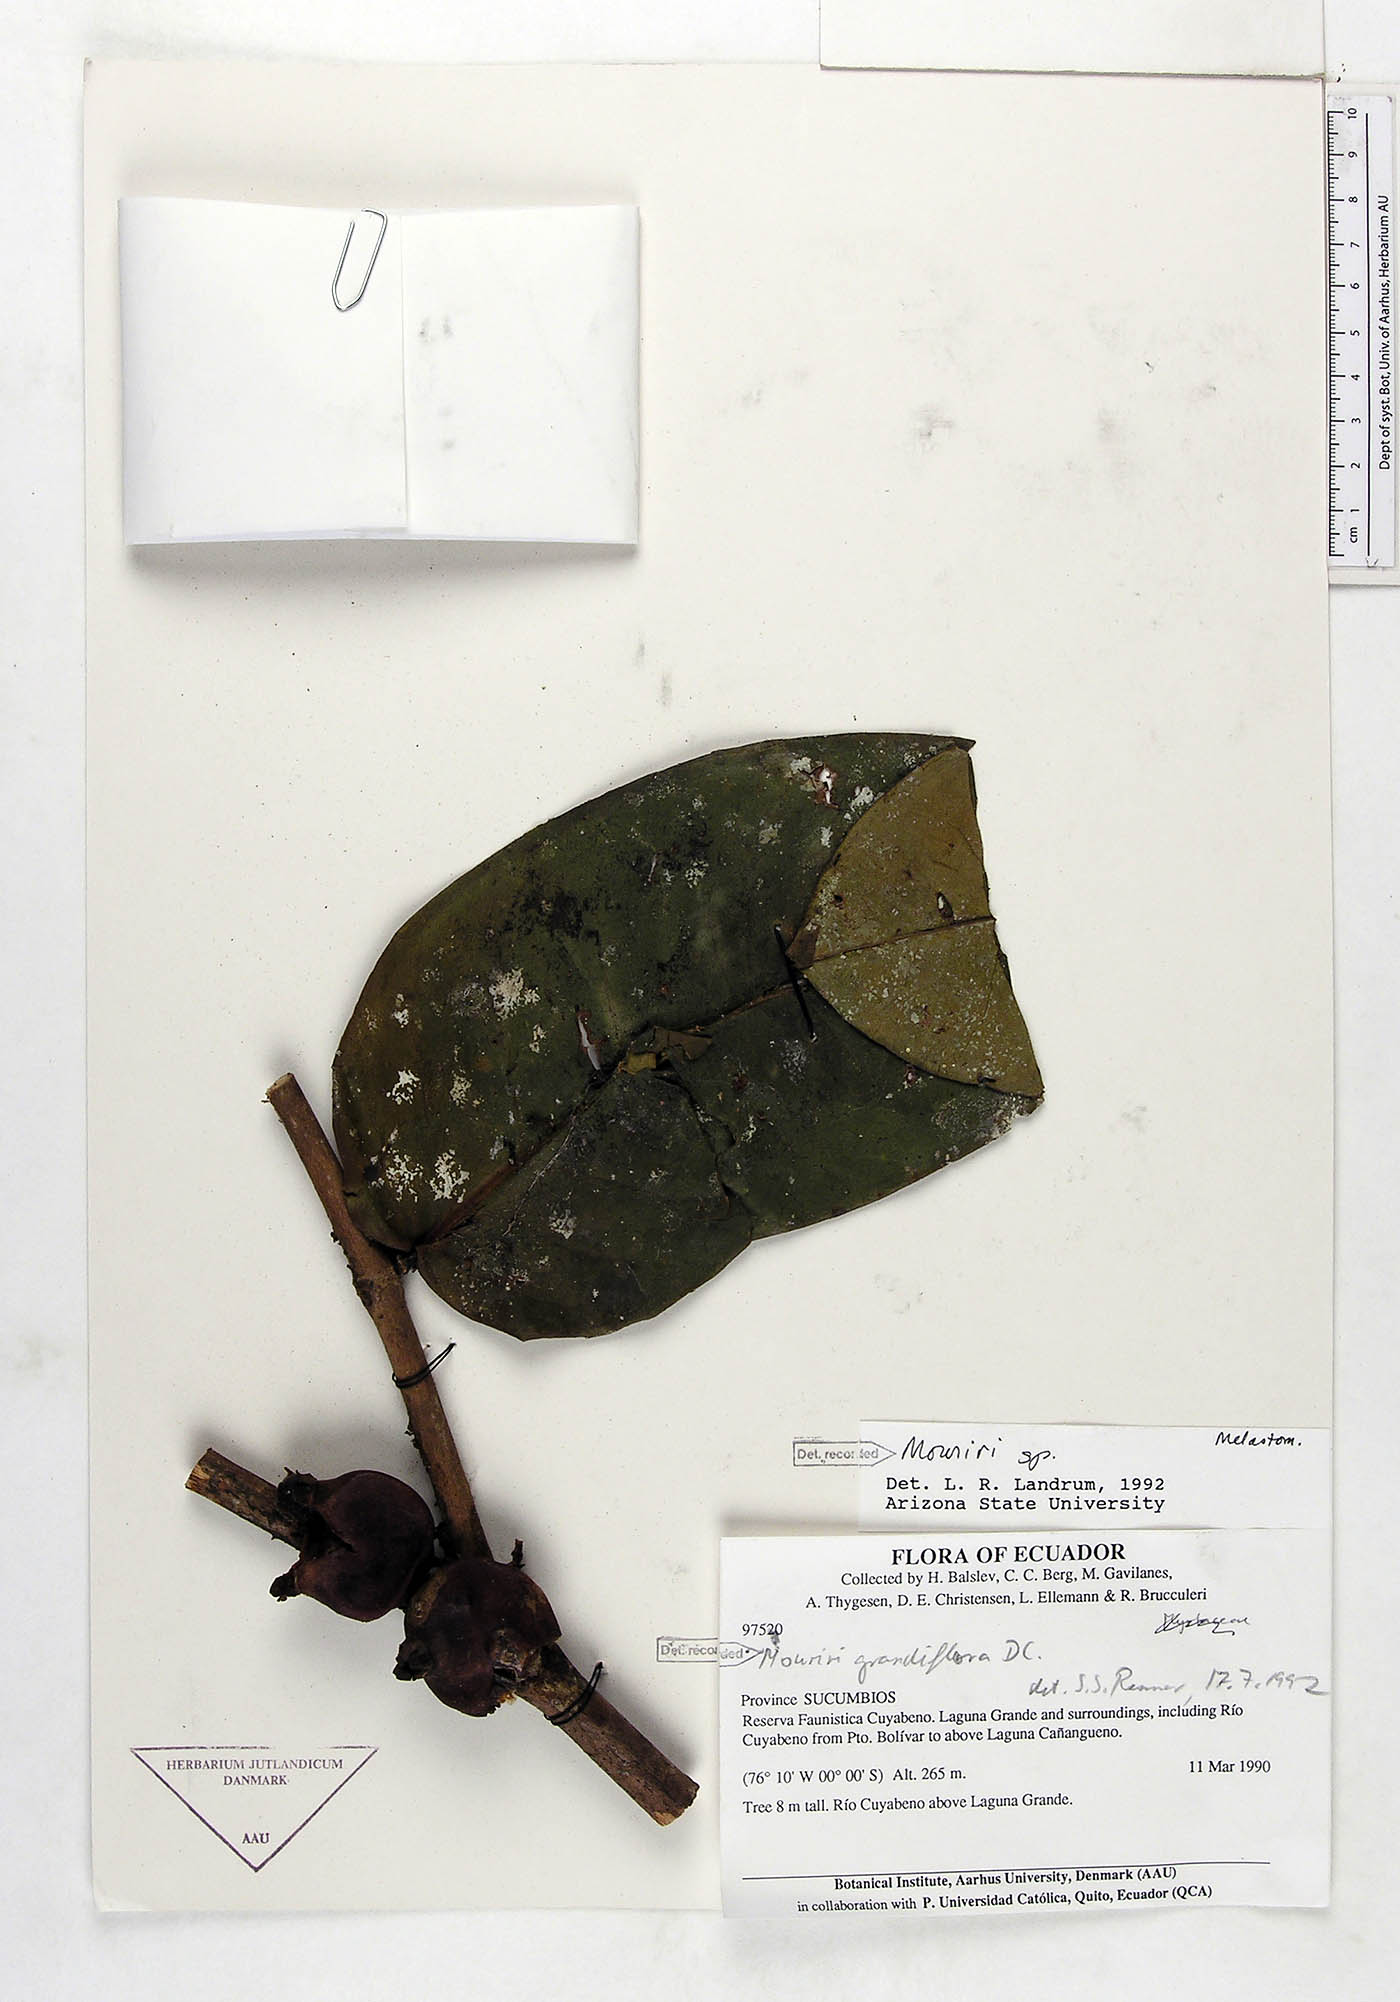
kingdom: Plantae
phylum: Tracheophyta
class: Magnoliopsida
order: Myrtales
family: Melastomataceae
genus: Mouriri
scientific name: Mouriri grandiflora
